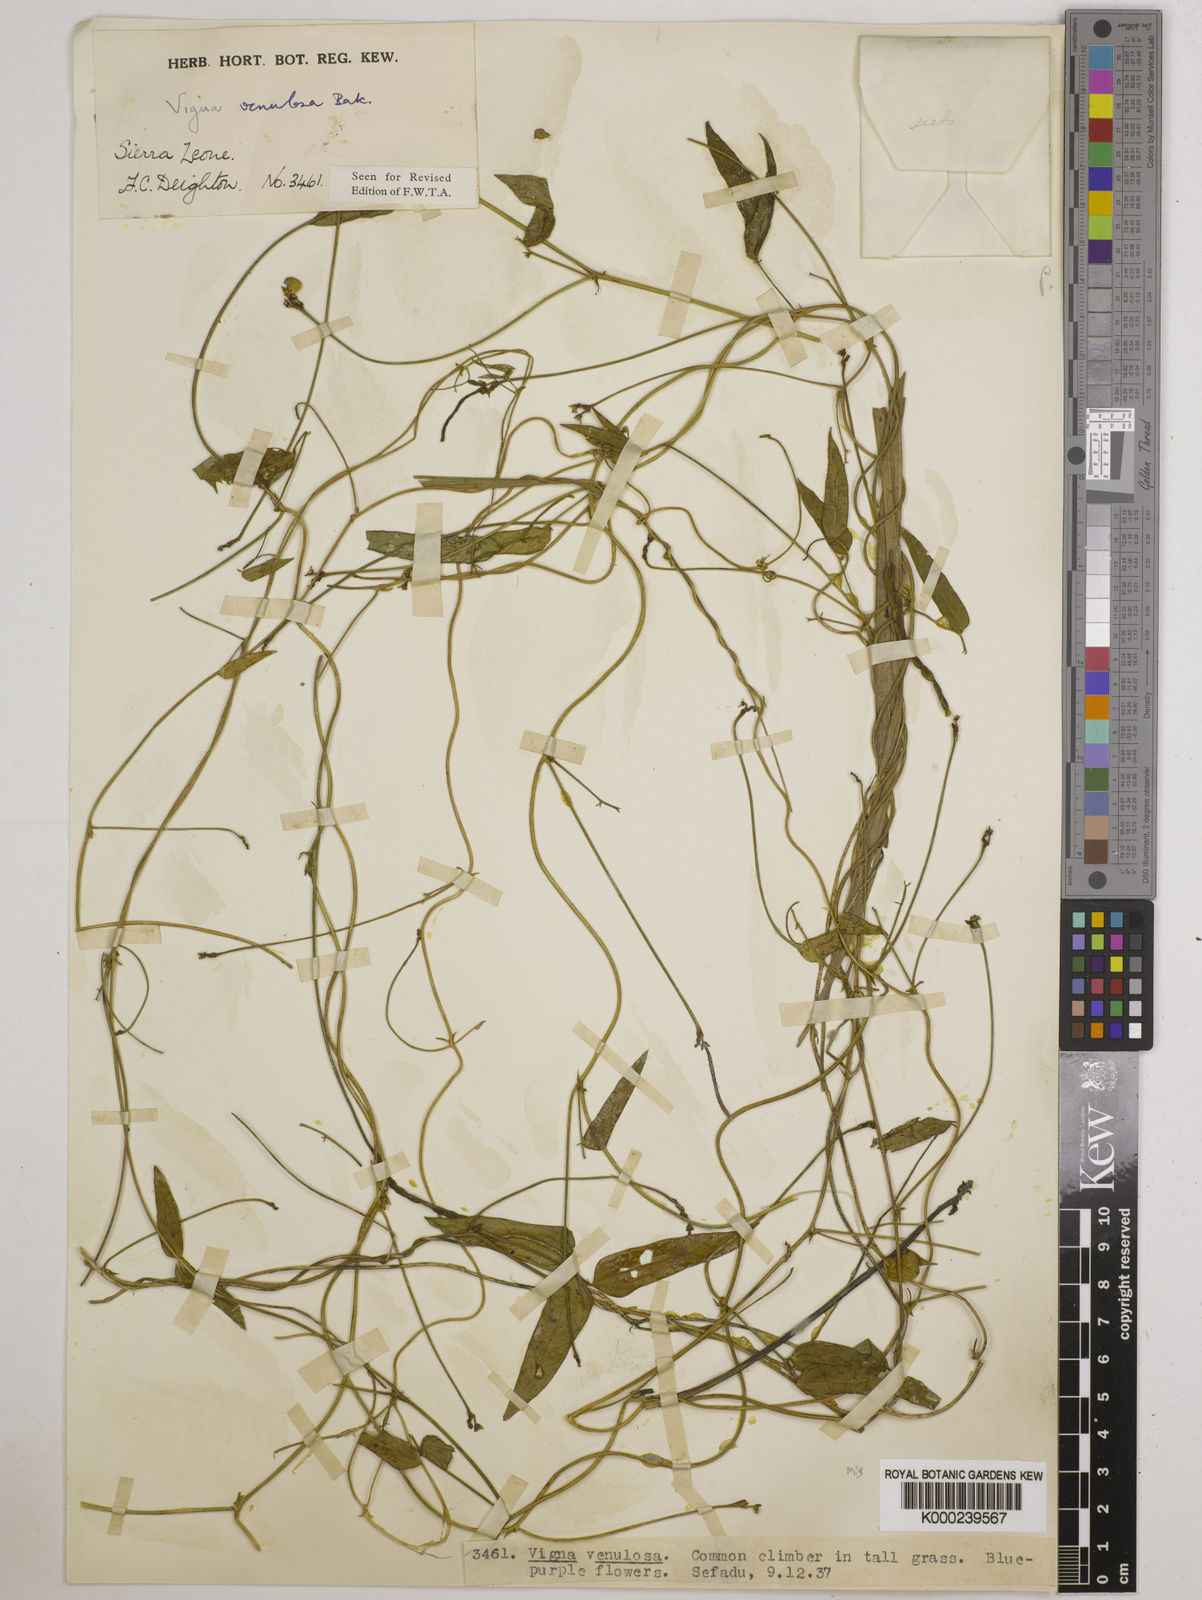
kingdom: Plantae
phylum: Tracheophyta
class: Magnoliopsida
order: Fabales
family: Fabaceae
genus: Vigna
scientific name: Vigna venulosa
